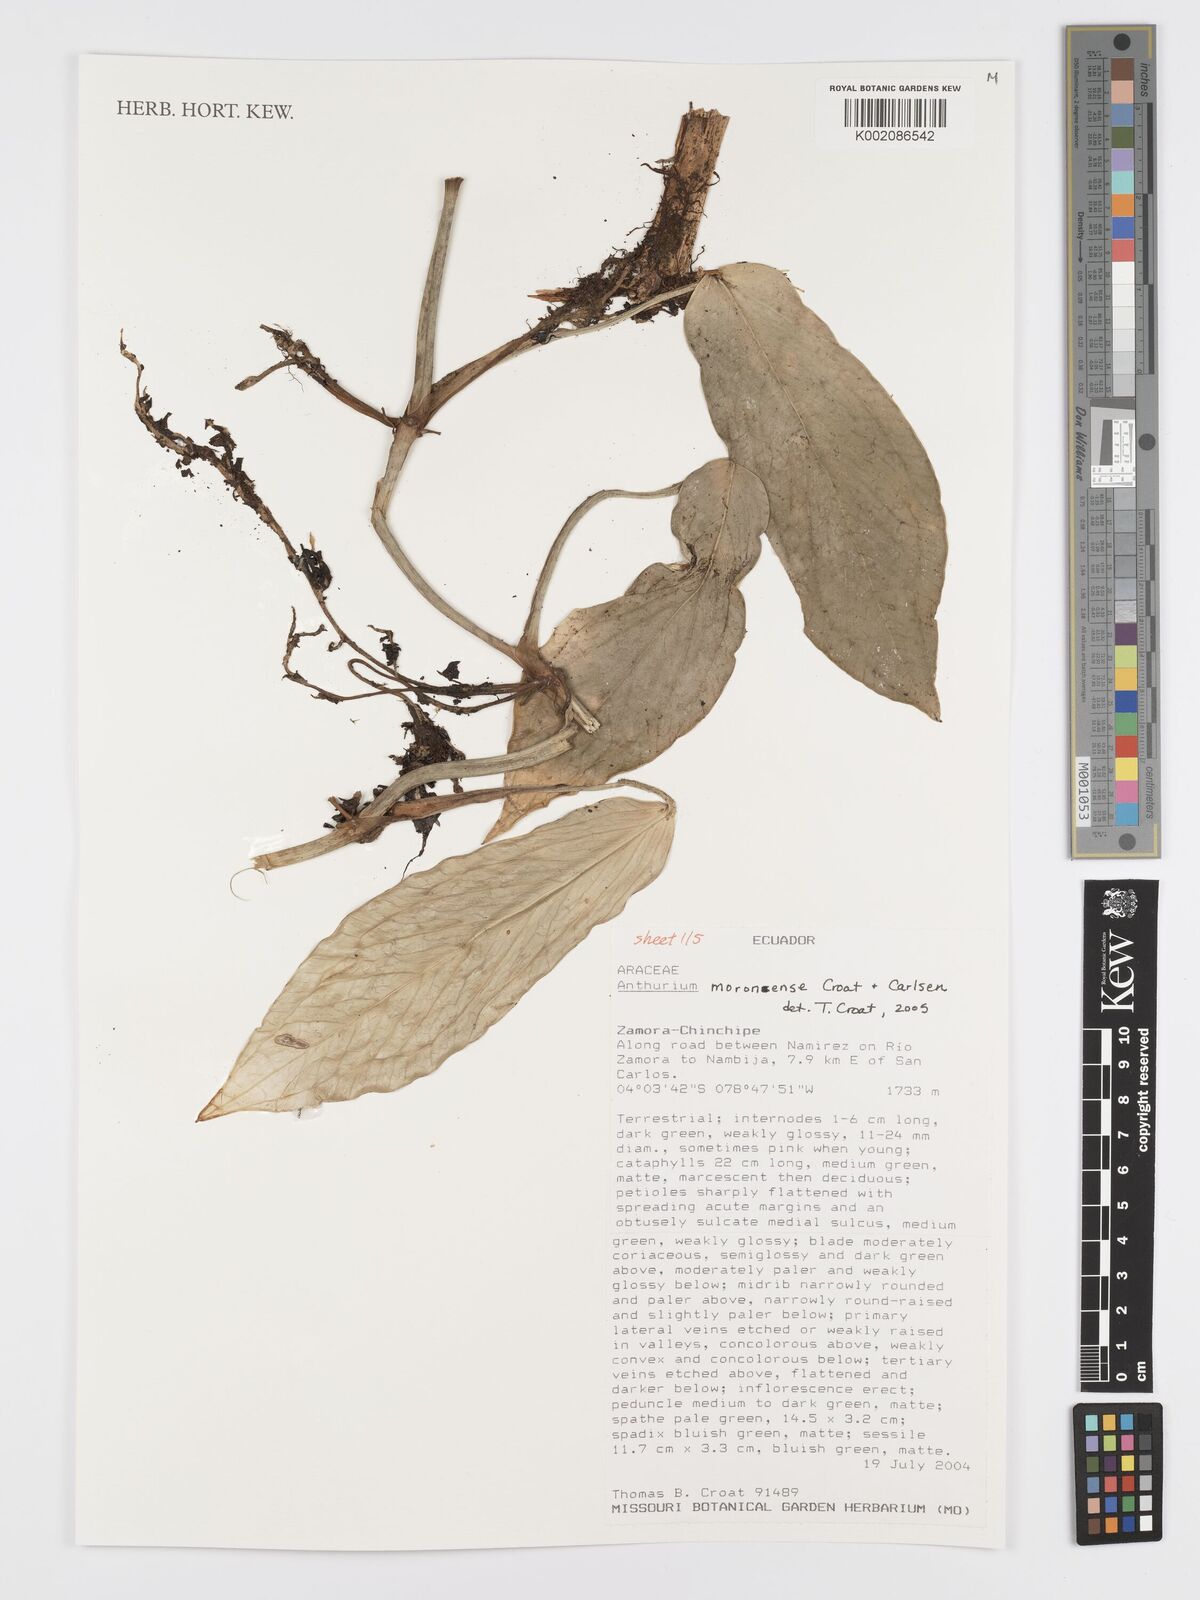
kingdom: Plantae
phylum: Tracheophyta
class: Liliopsida
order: Alismatales
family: Araceae
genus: Anthurium
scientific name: Anthurium moronense
